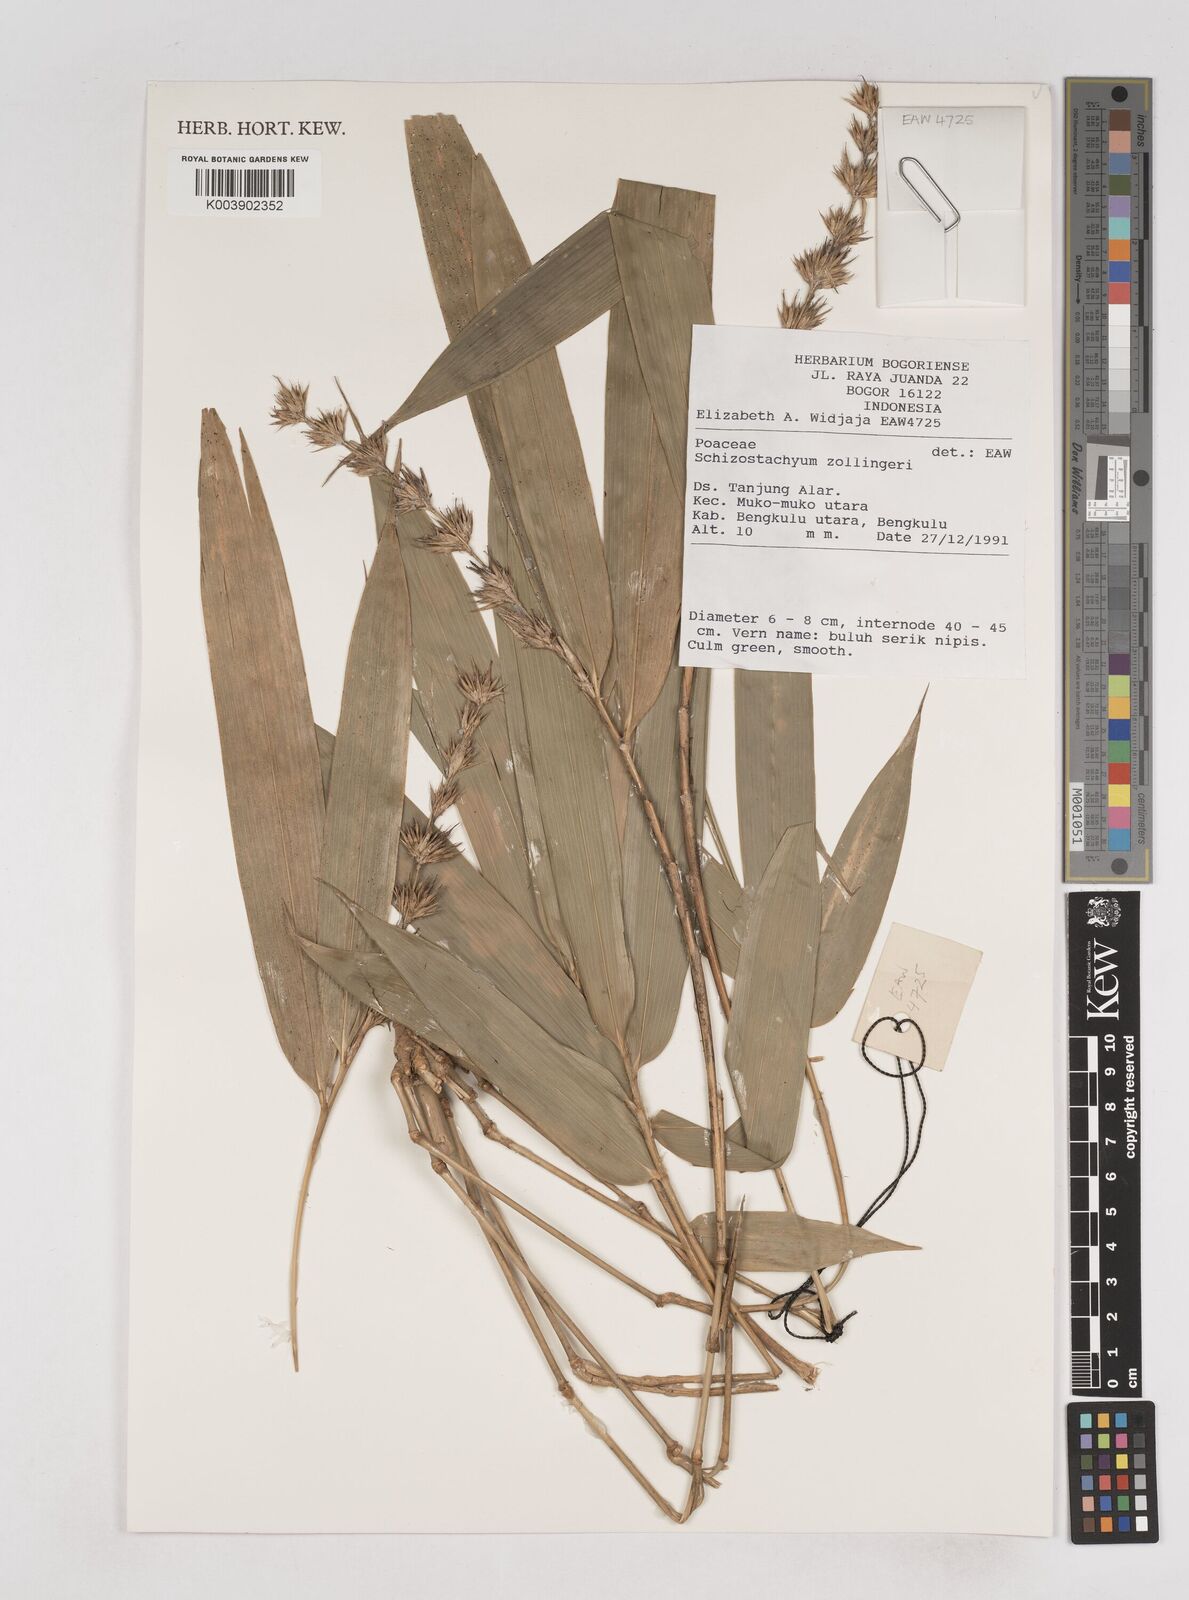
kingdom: Plantae
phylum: Tracheophyta
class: Liliopsida
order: Poales
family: Poaceae
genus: Schizostachyum
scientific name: Schizostachyum zollingeri
